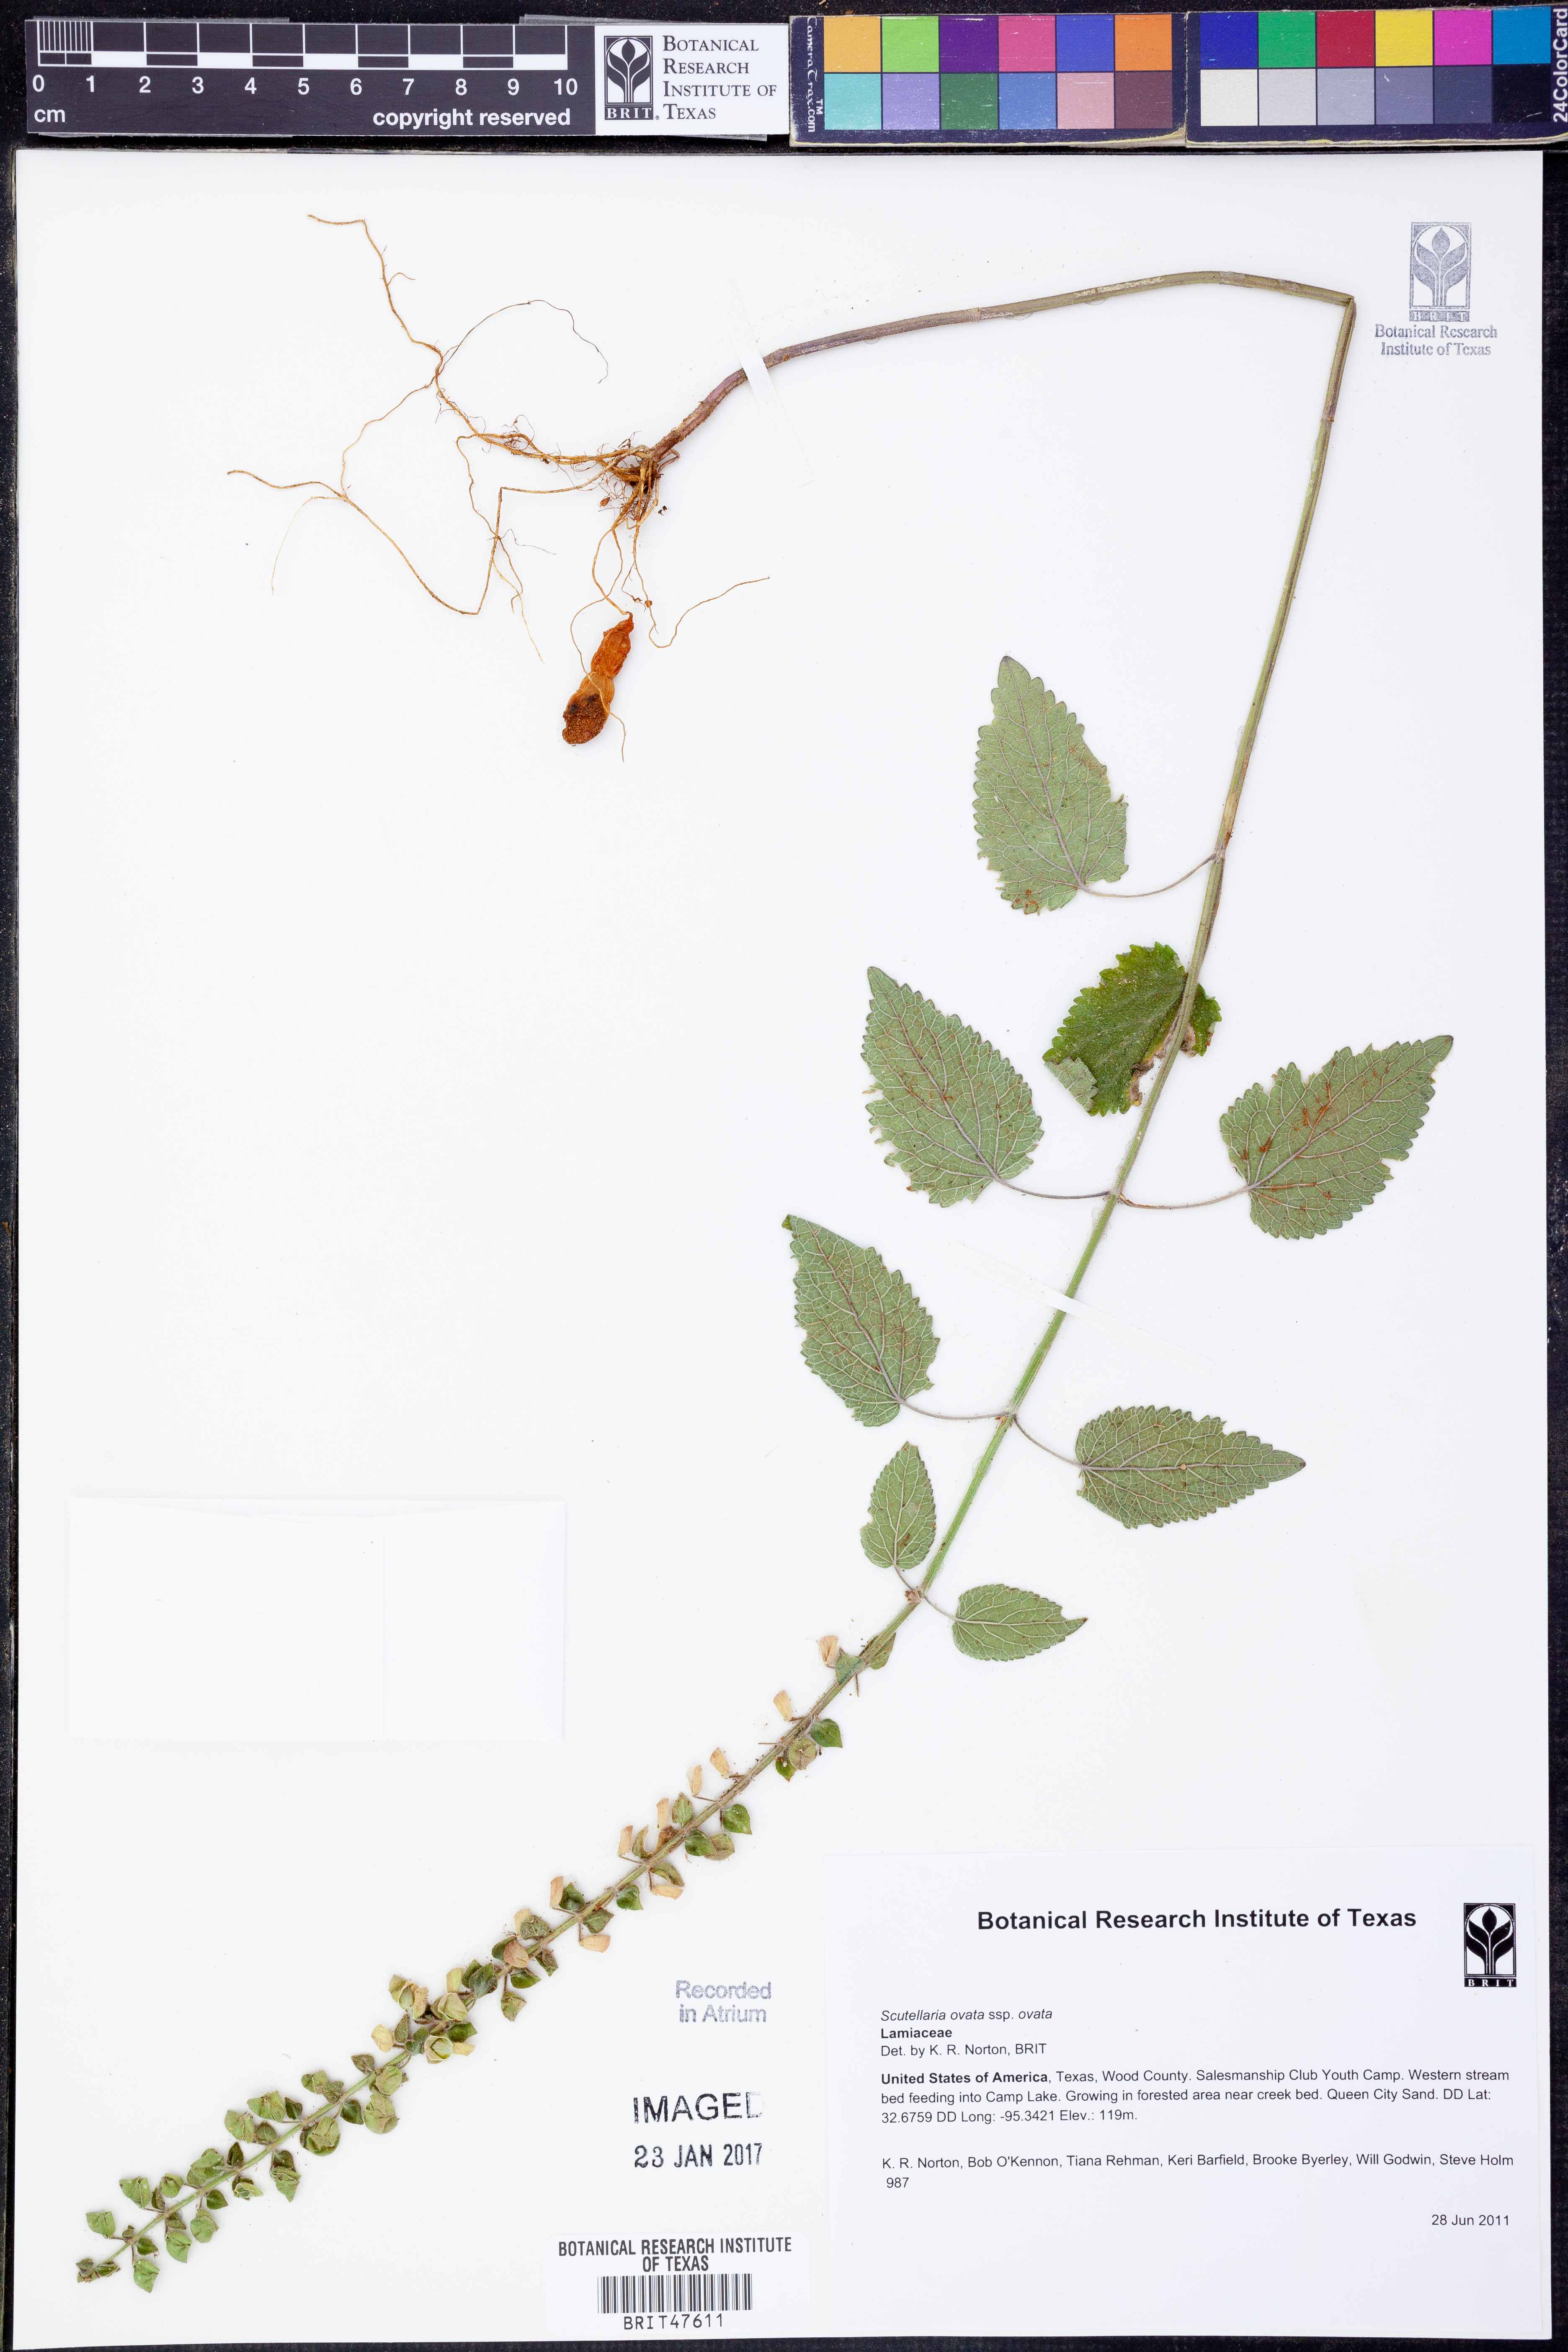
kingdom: Plantae
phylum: Tracheophyta
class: Magnoliopsida
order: Lamiales
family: Lamiaceae
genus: Scutellaria
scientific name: Scutellaria ovata
